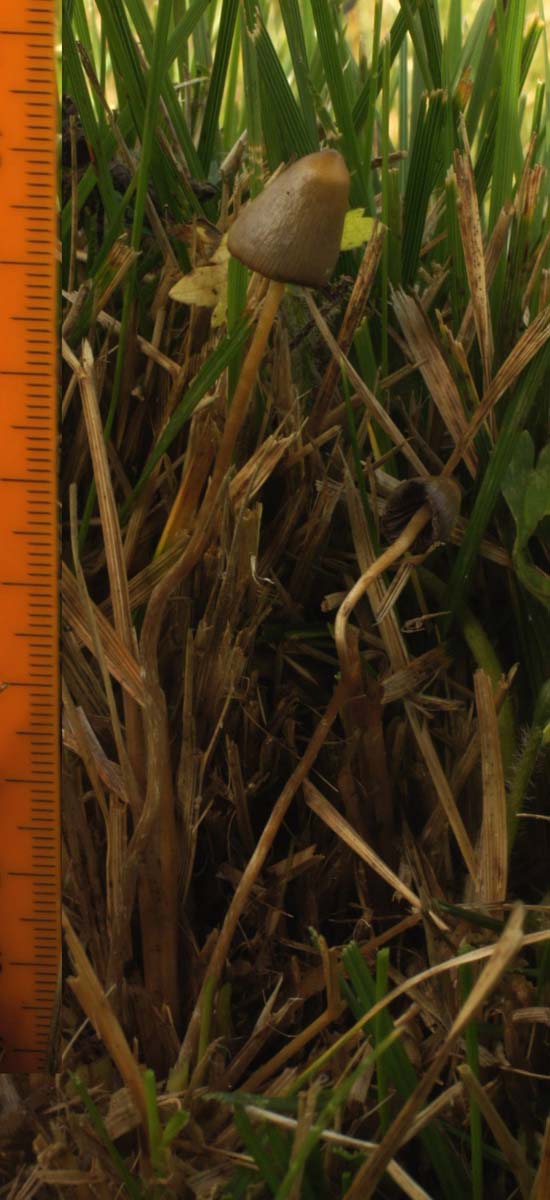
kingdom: Fungi
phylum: Basidiomycota
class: Agaricomycetes
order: Agaricales
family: Hymenogastraceae
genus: Psilocybe
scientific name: Psilocybe semilanceata
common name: spids nøgenhat
